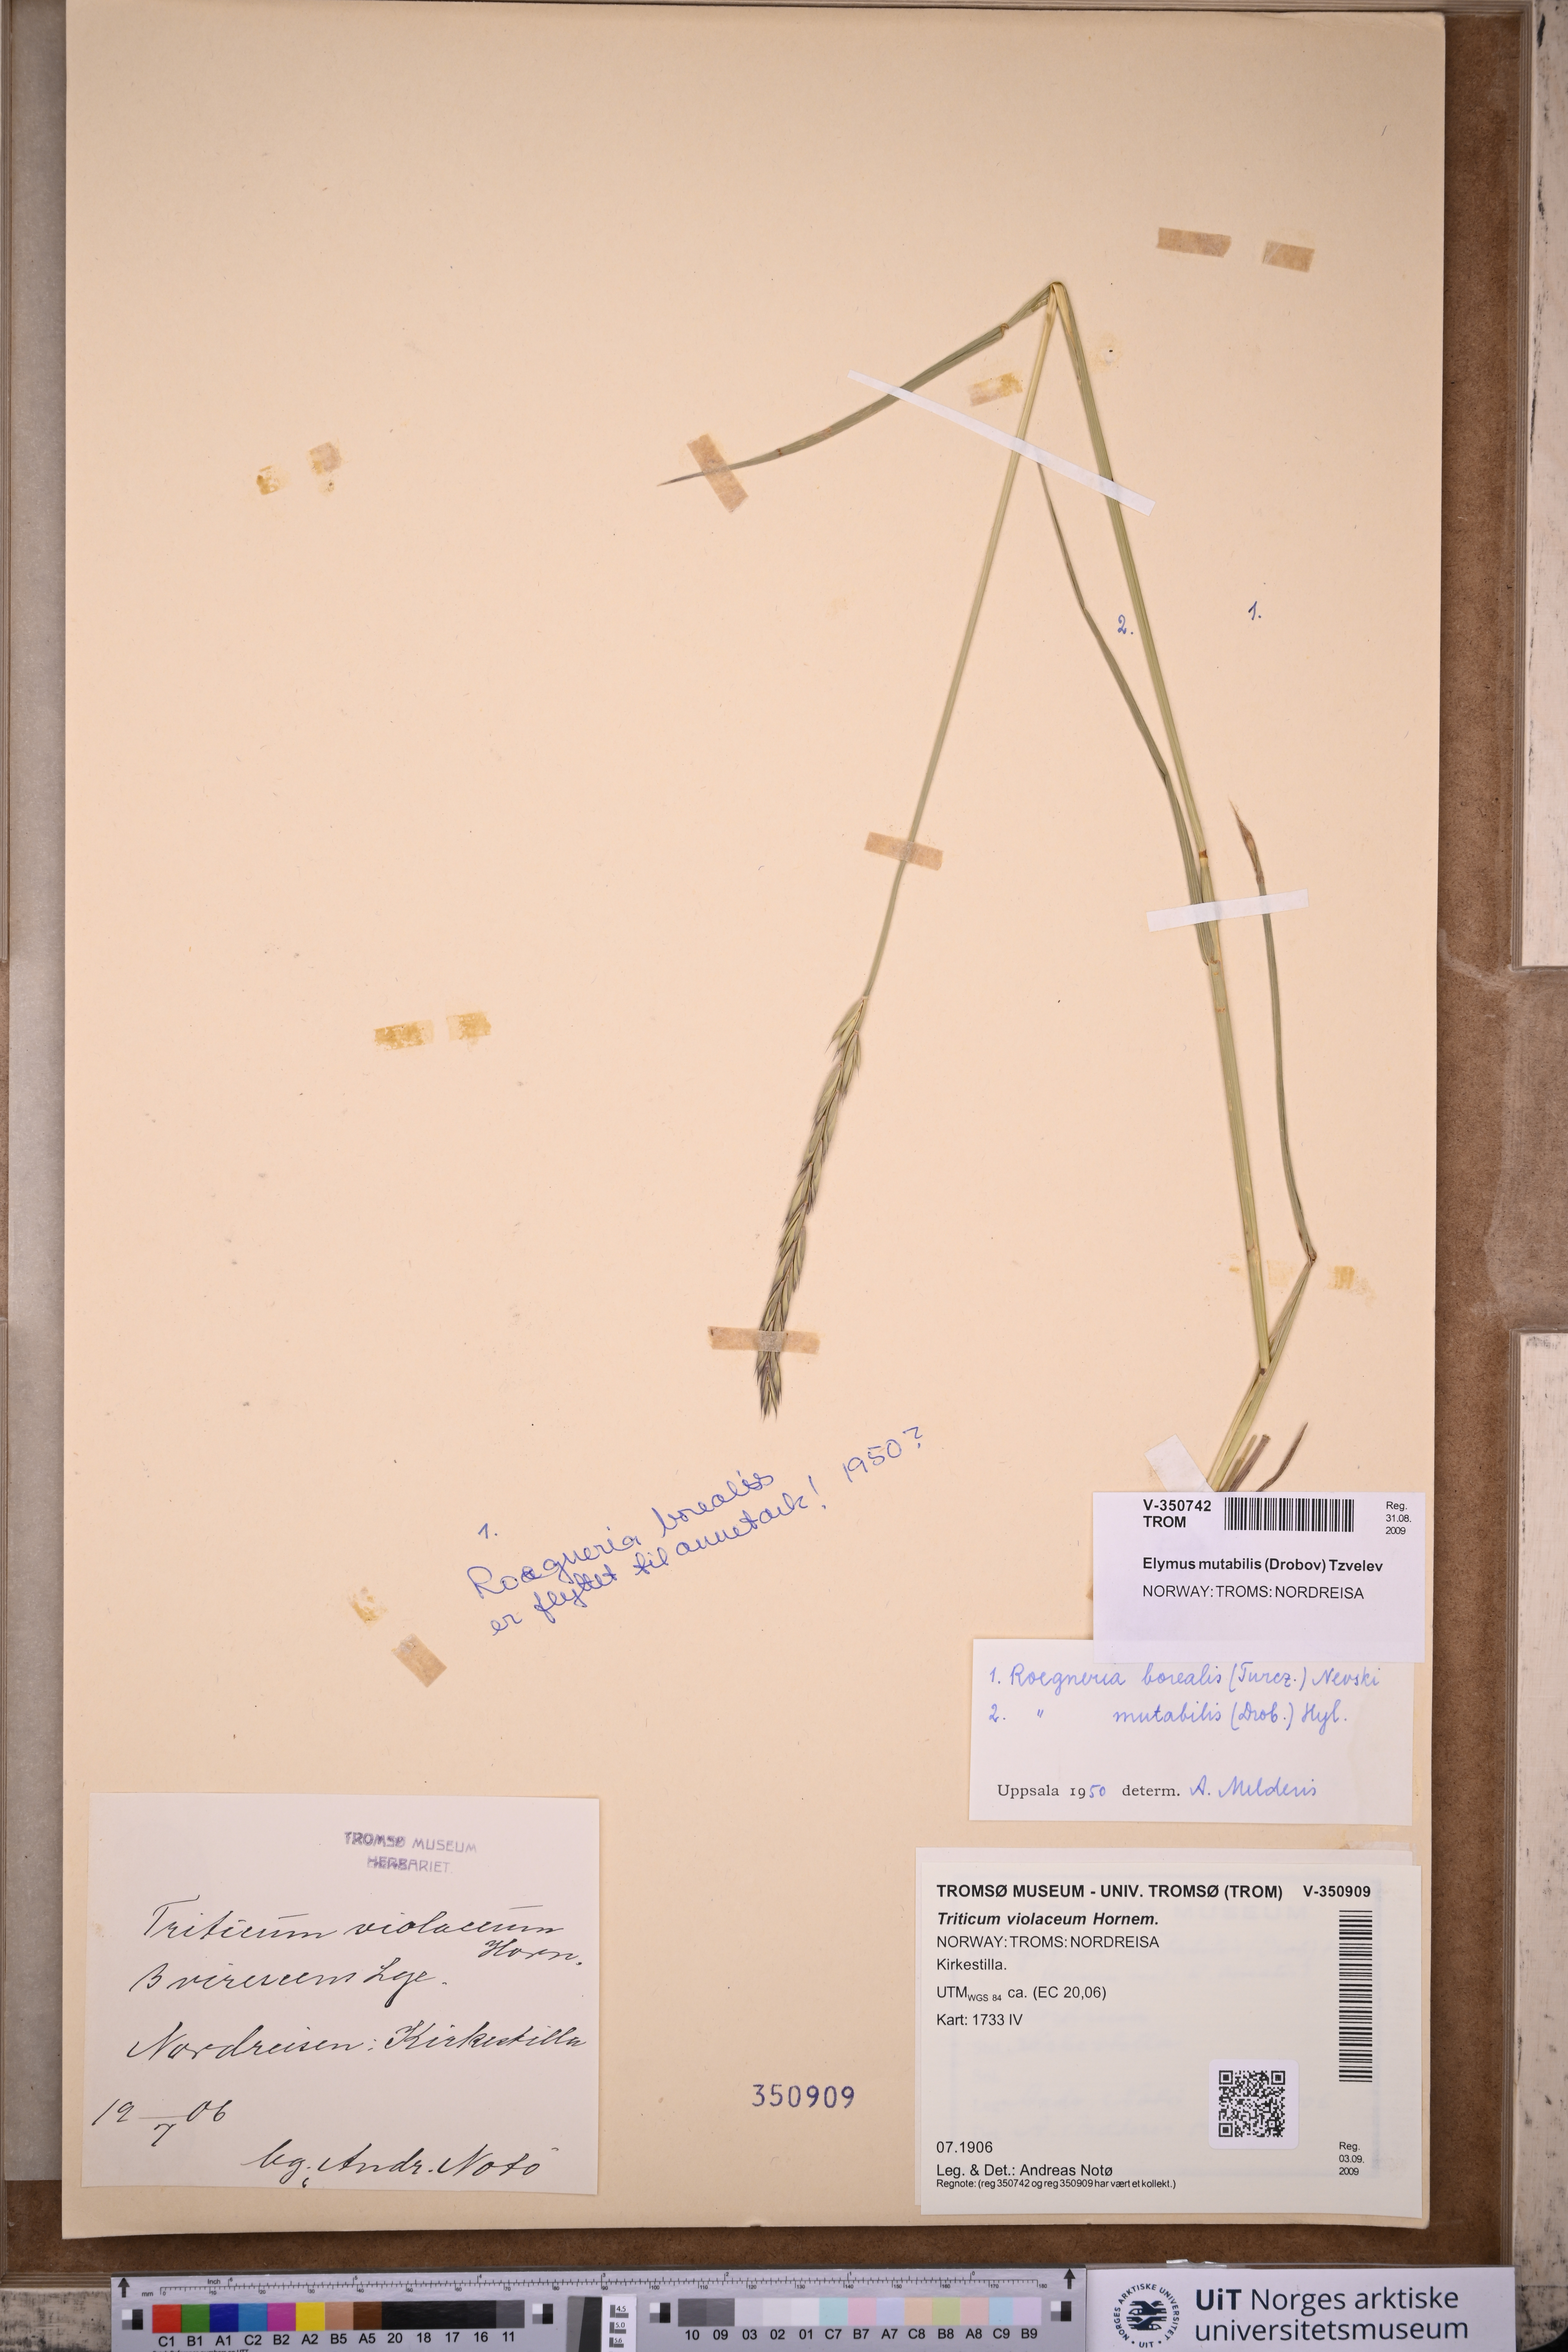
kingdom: Plantae
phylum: Tracheophyta
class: Liliopsida
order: Poales
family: Poaceae
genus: Elymus
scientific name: Elymus mutabilis
